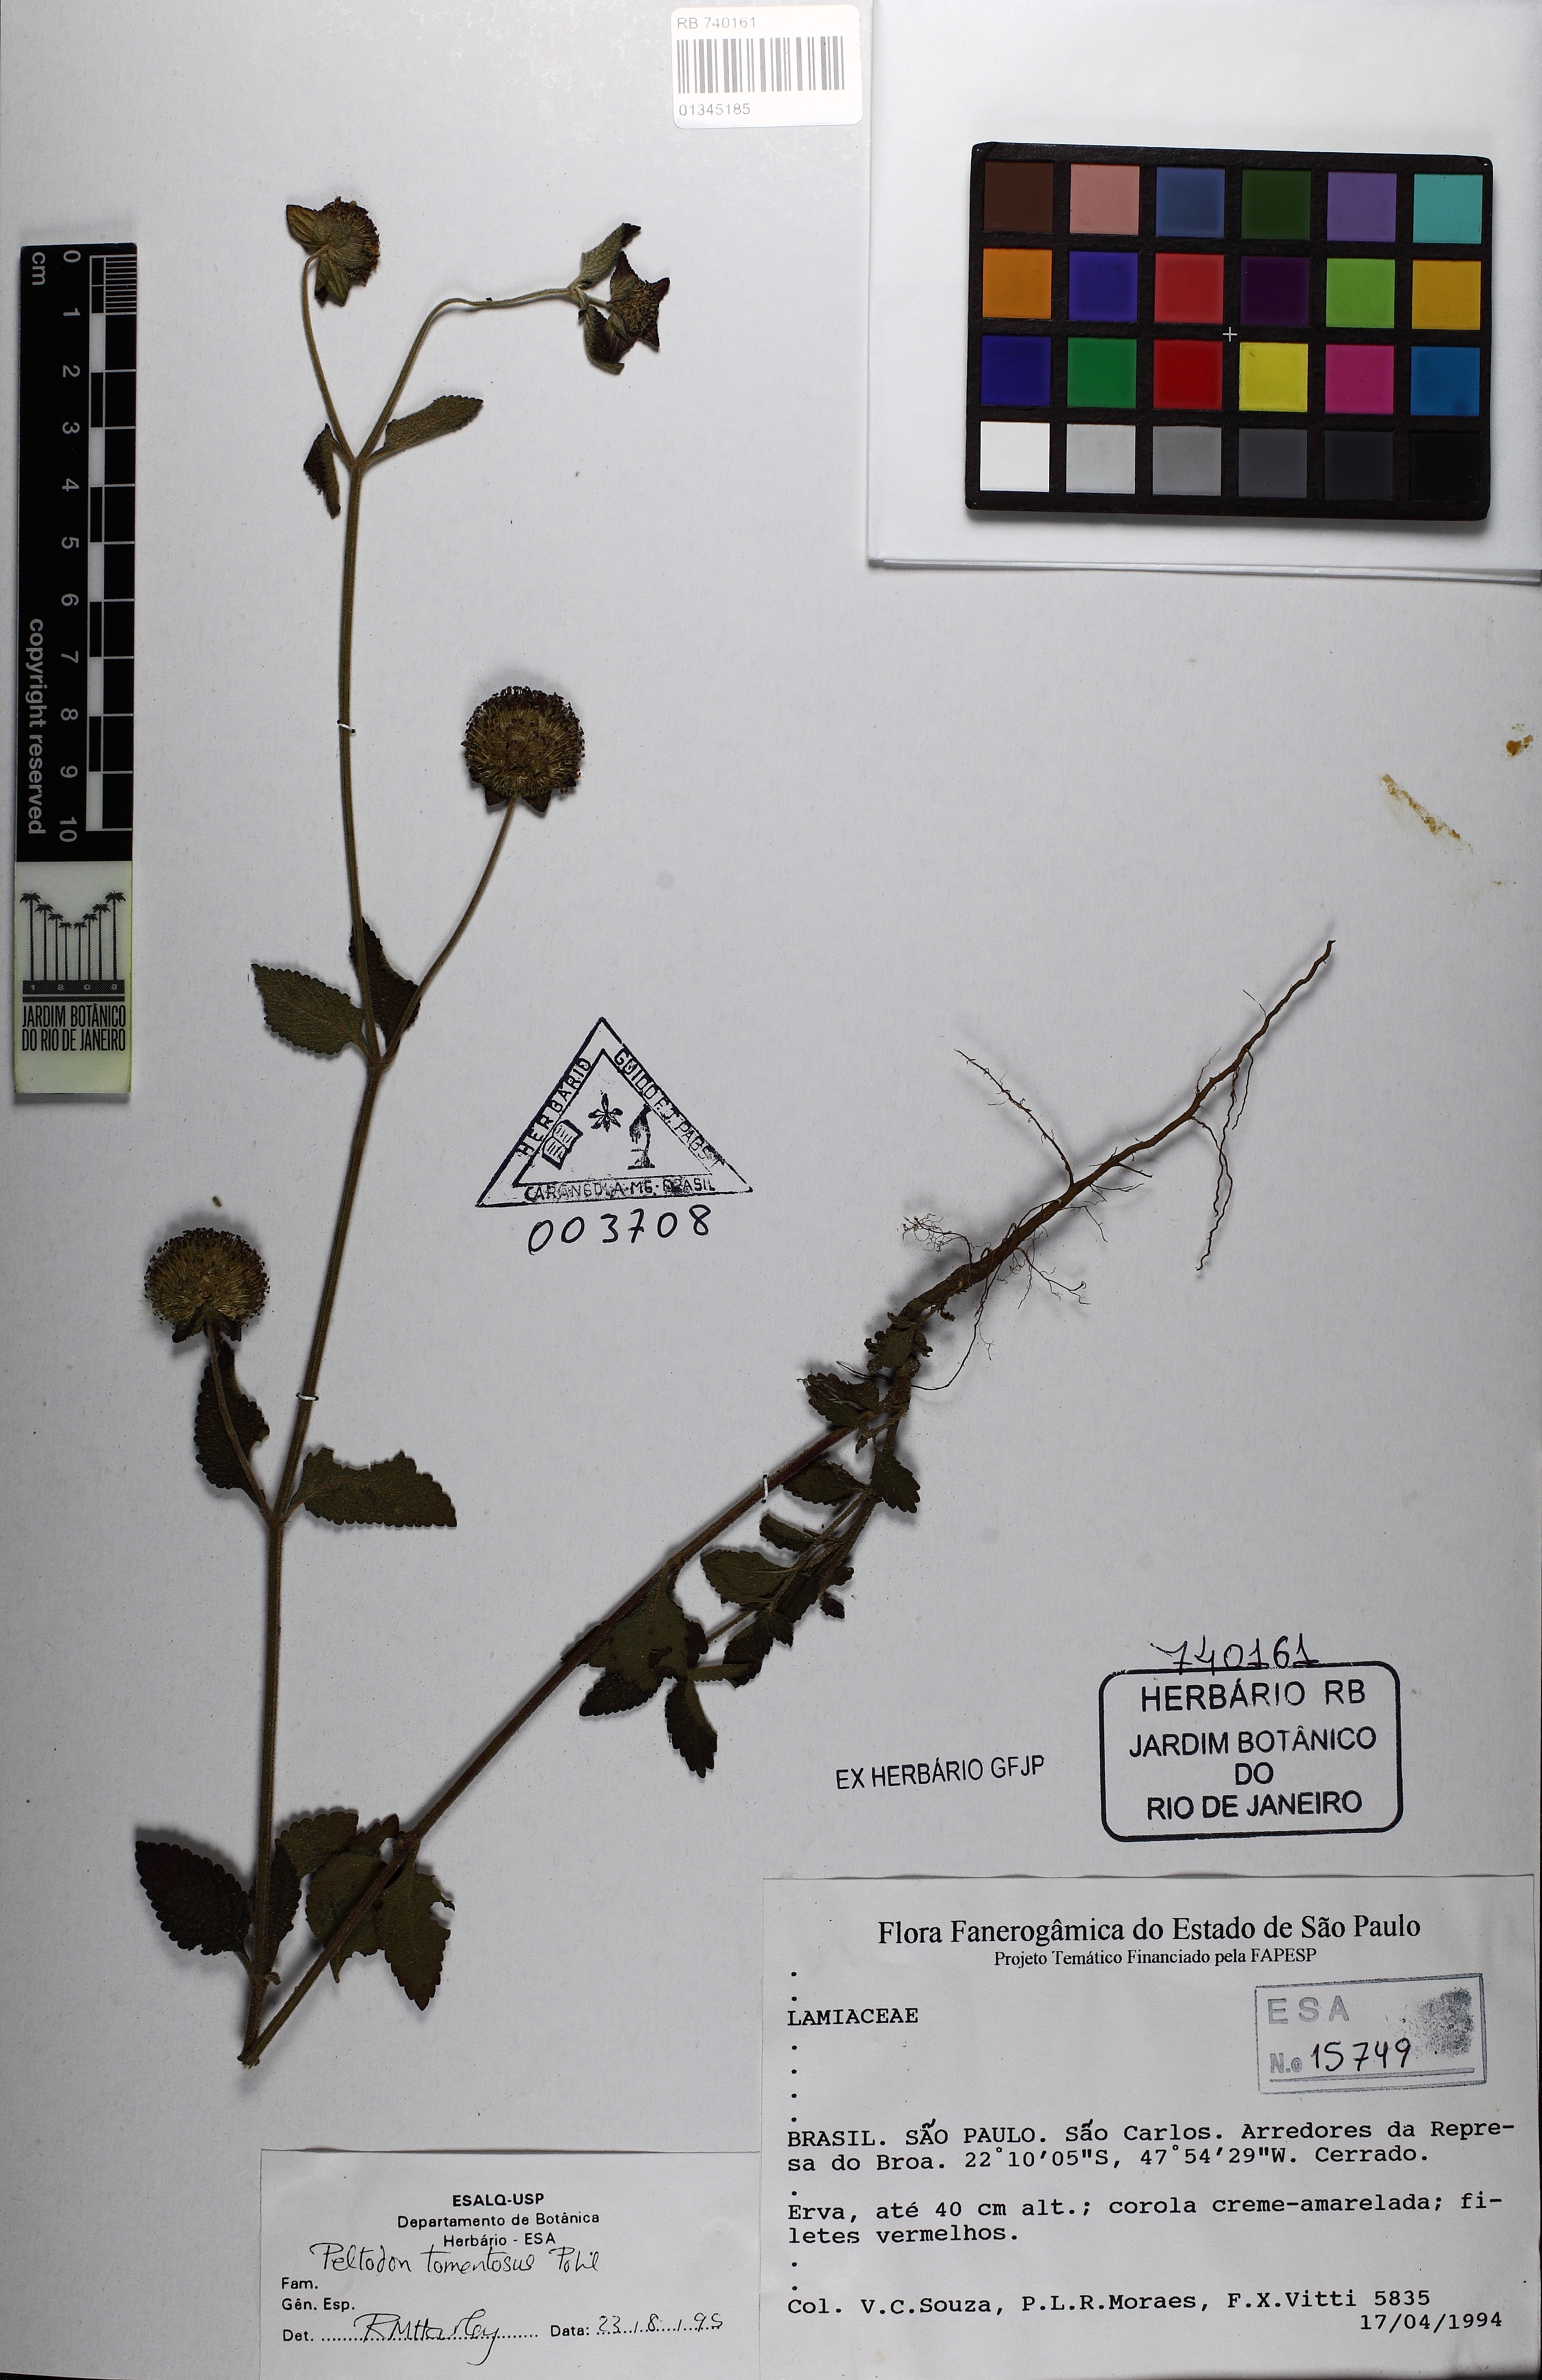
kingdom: Plantae
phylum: Tracheophyta
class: Magnoliopsida
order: Lamiales
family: Lamiaceae
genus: Hyptis
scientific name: Hyptis campestris
